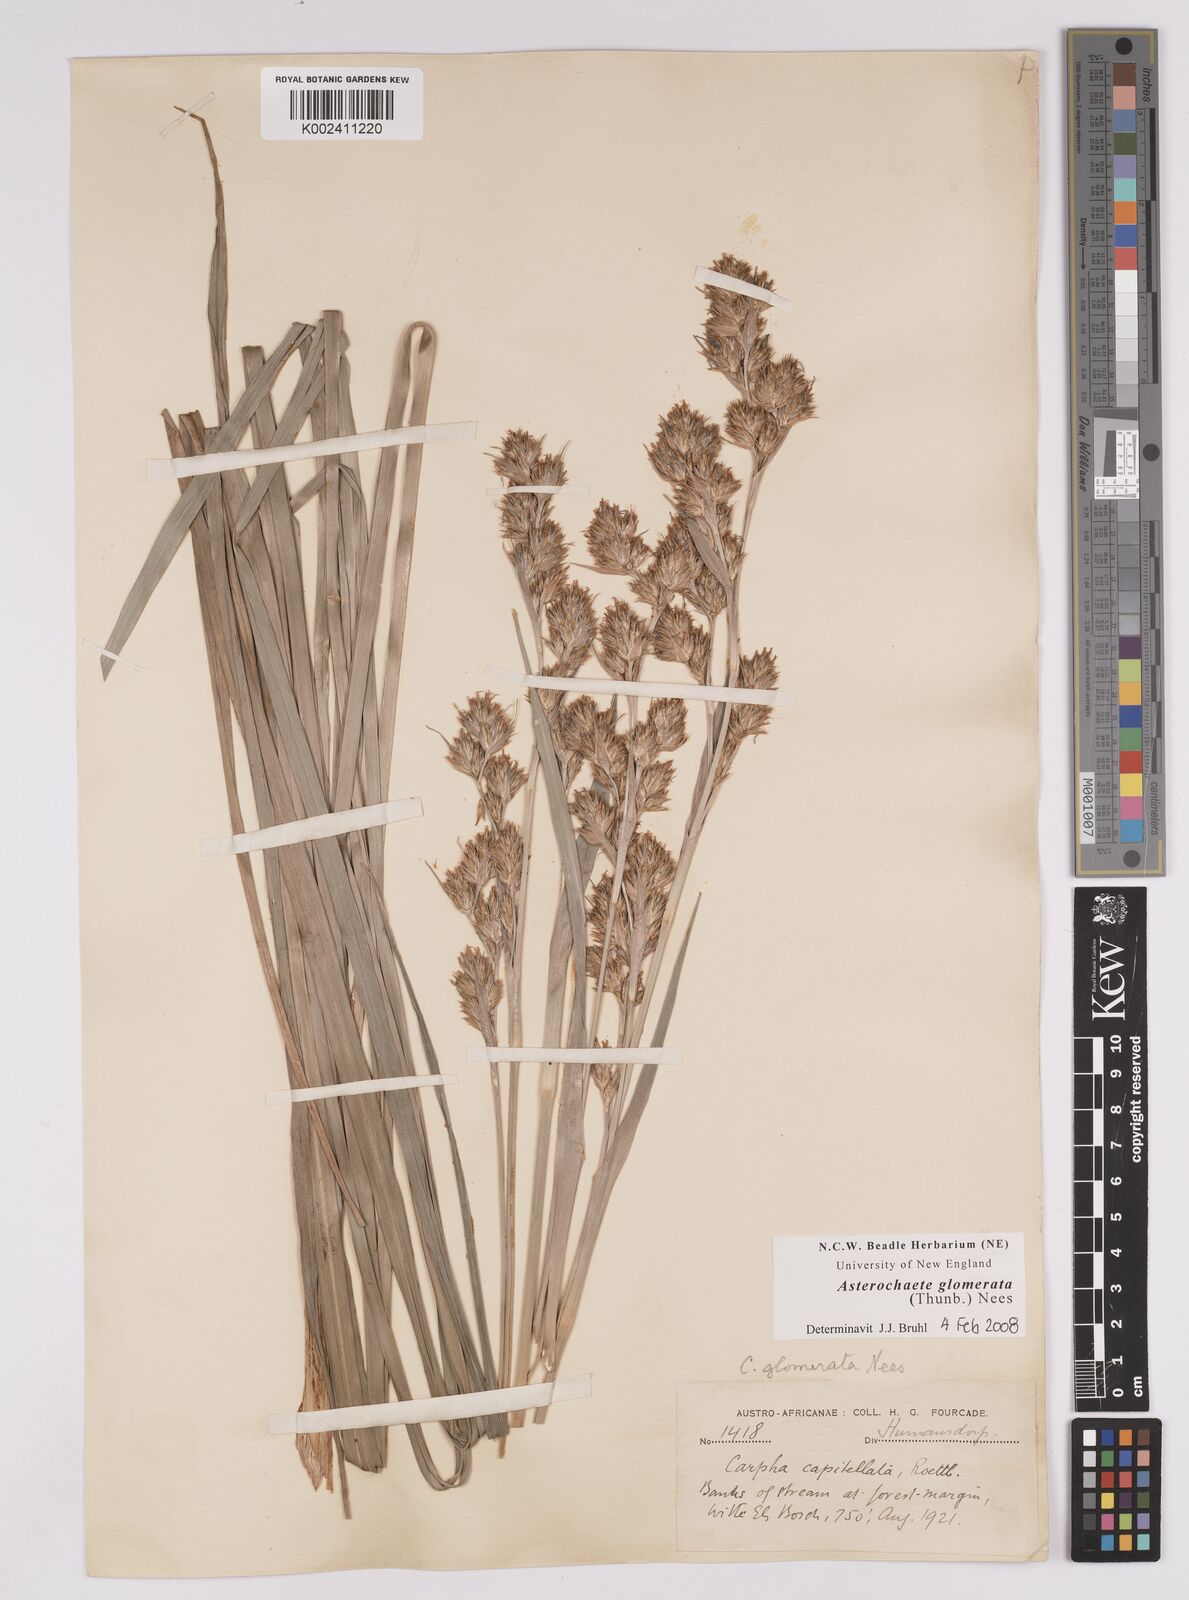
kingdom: Plantae
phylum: Tracheophyta
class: Liliopsida
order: Poales
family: Cyperaceae
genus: Carpha
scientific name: Carpha glomerata
